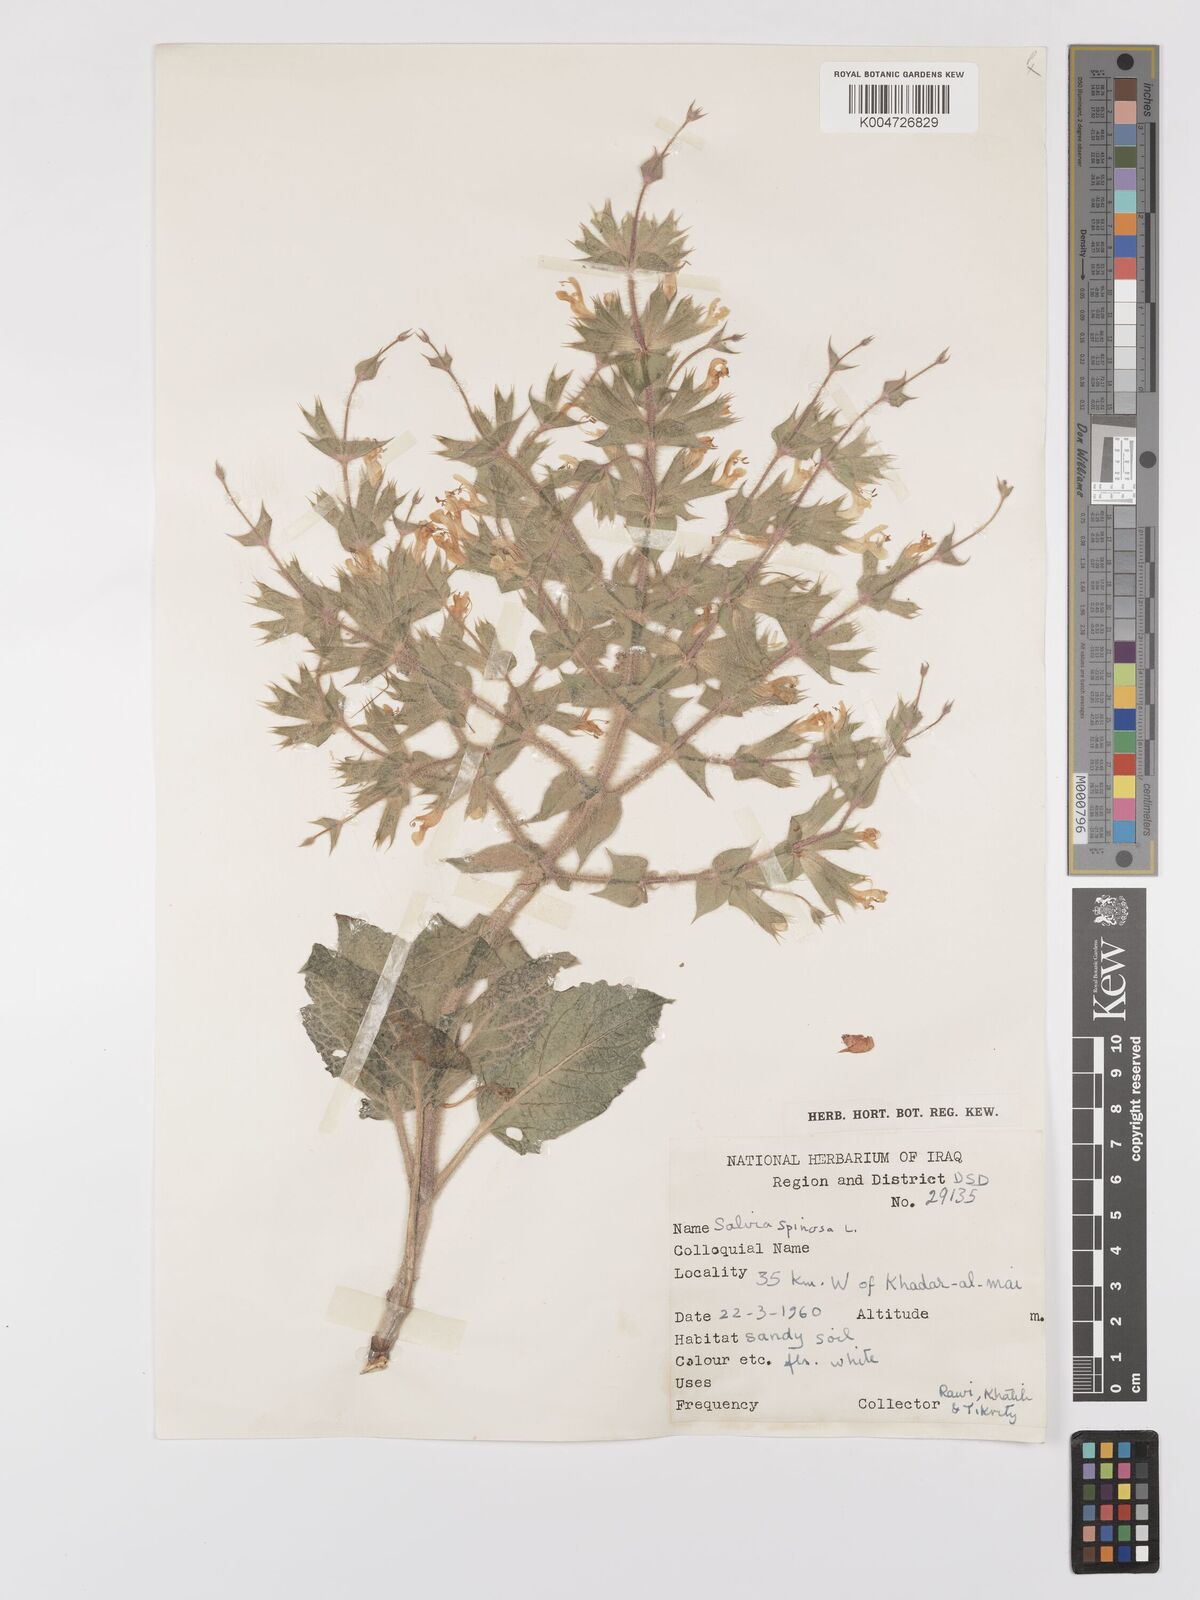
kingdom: Plantae
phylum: Tracheophyta
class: Magnoliopsida
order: Lamiales
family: Lamiaceae
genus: Salvia
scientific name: Salvia
